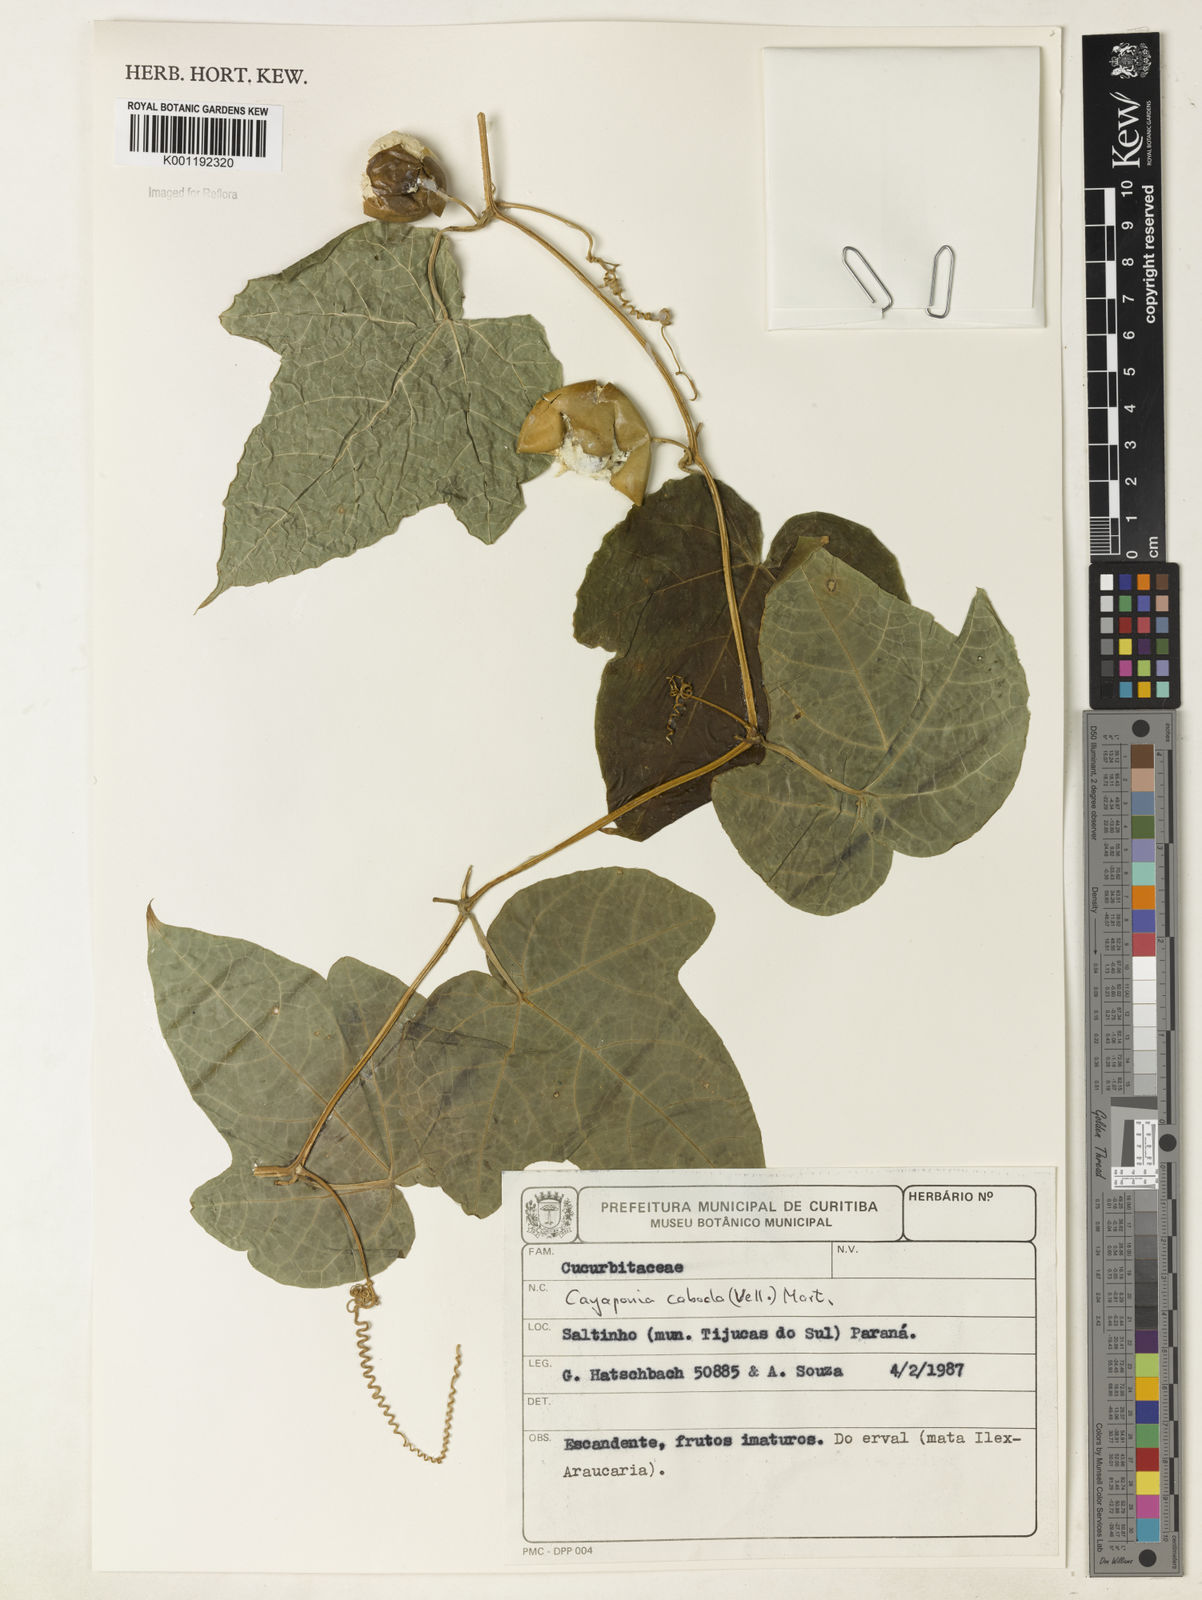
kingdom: Plantae
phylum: Tracheophyta
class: Magnoliopsida
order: Cucurbitales
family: Cucurbitaceae
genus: Cayaponia
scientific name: Cayaponia cabocla
